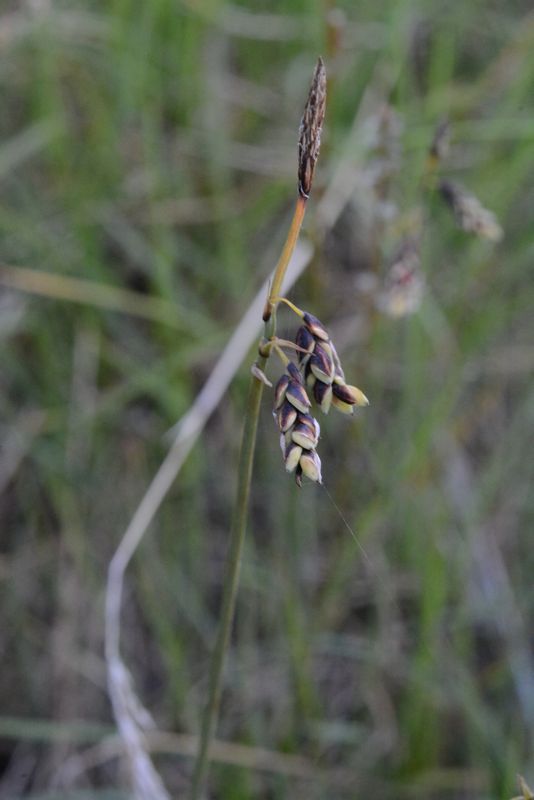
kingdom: Plantae
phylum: Tracheophyta
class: Liliopsida
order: Poales
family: Cyperaceae
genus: Carex
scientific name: Carex rariflora
